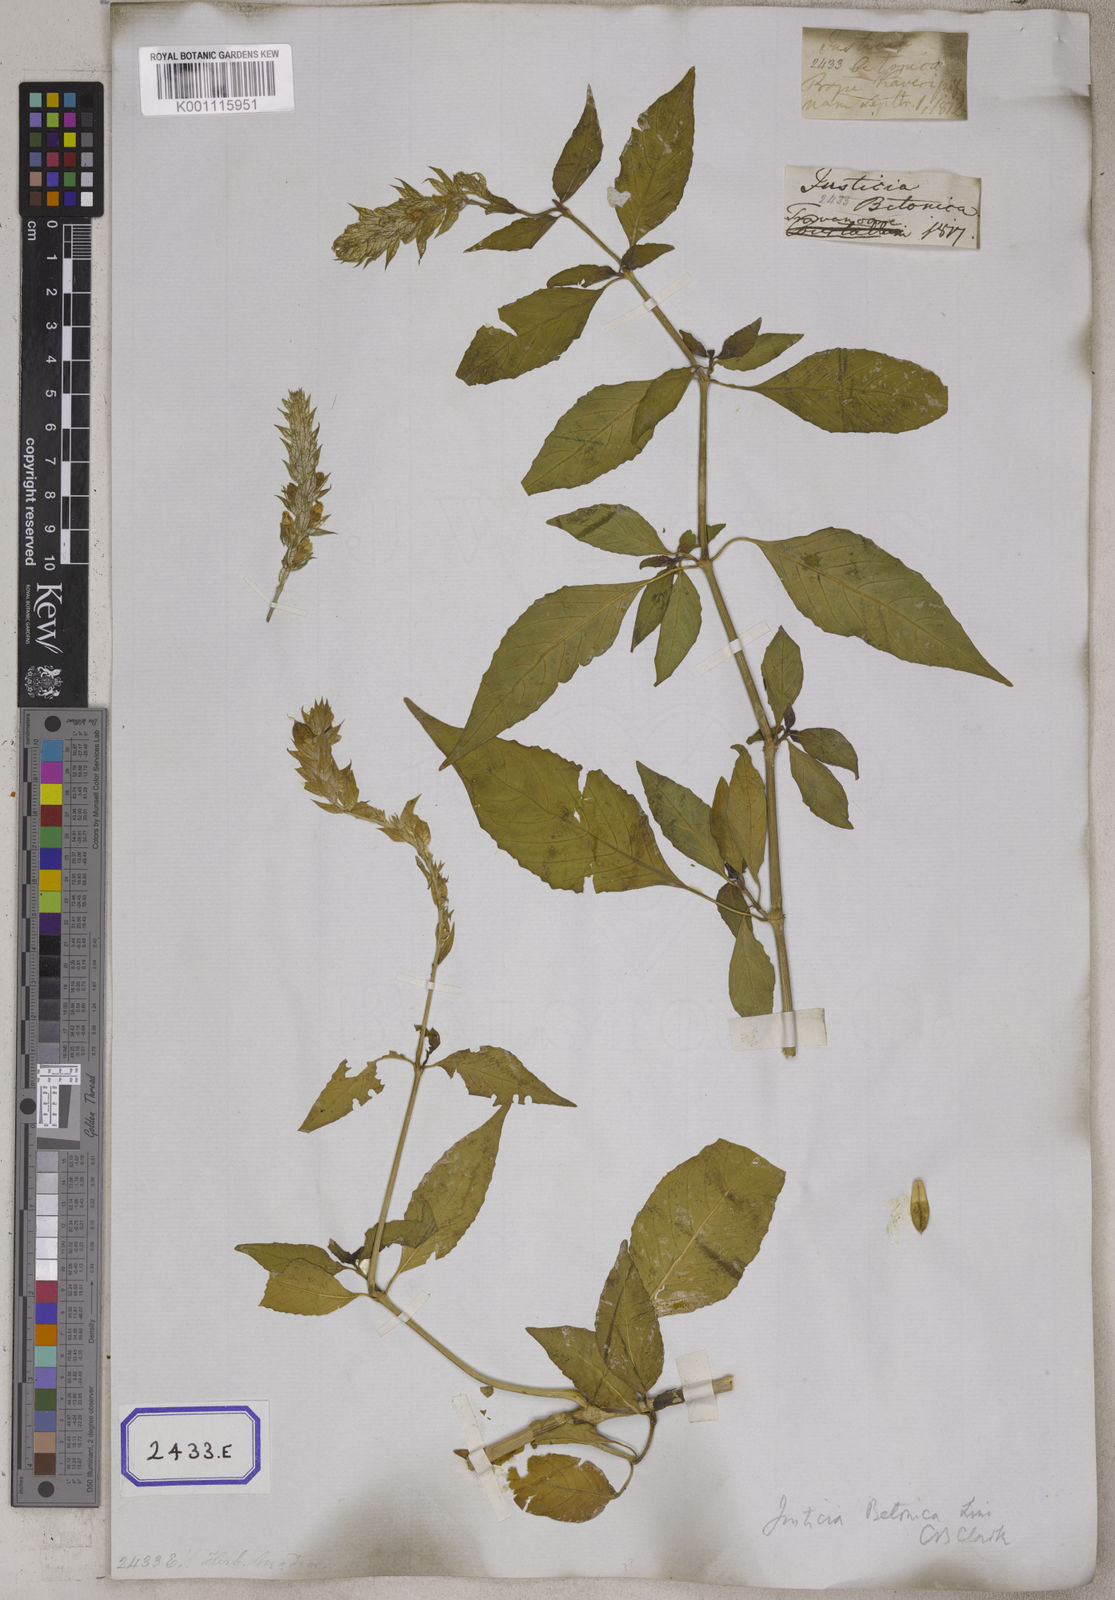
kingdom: Plantae
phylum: Tracheophyta
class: Magnoliopsida
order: Lamiales
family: Acanthaceae
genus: Nicoteba
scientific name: Nicoteba betonica
